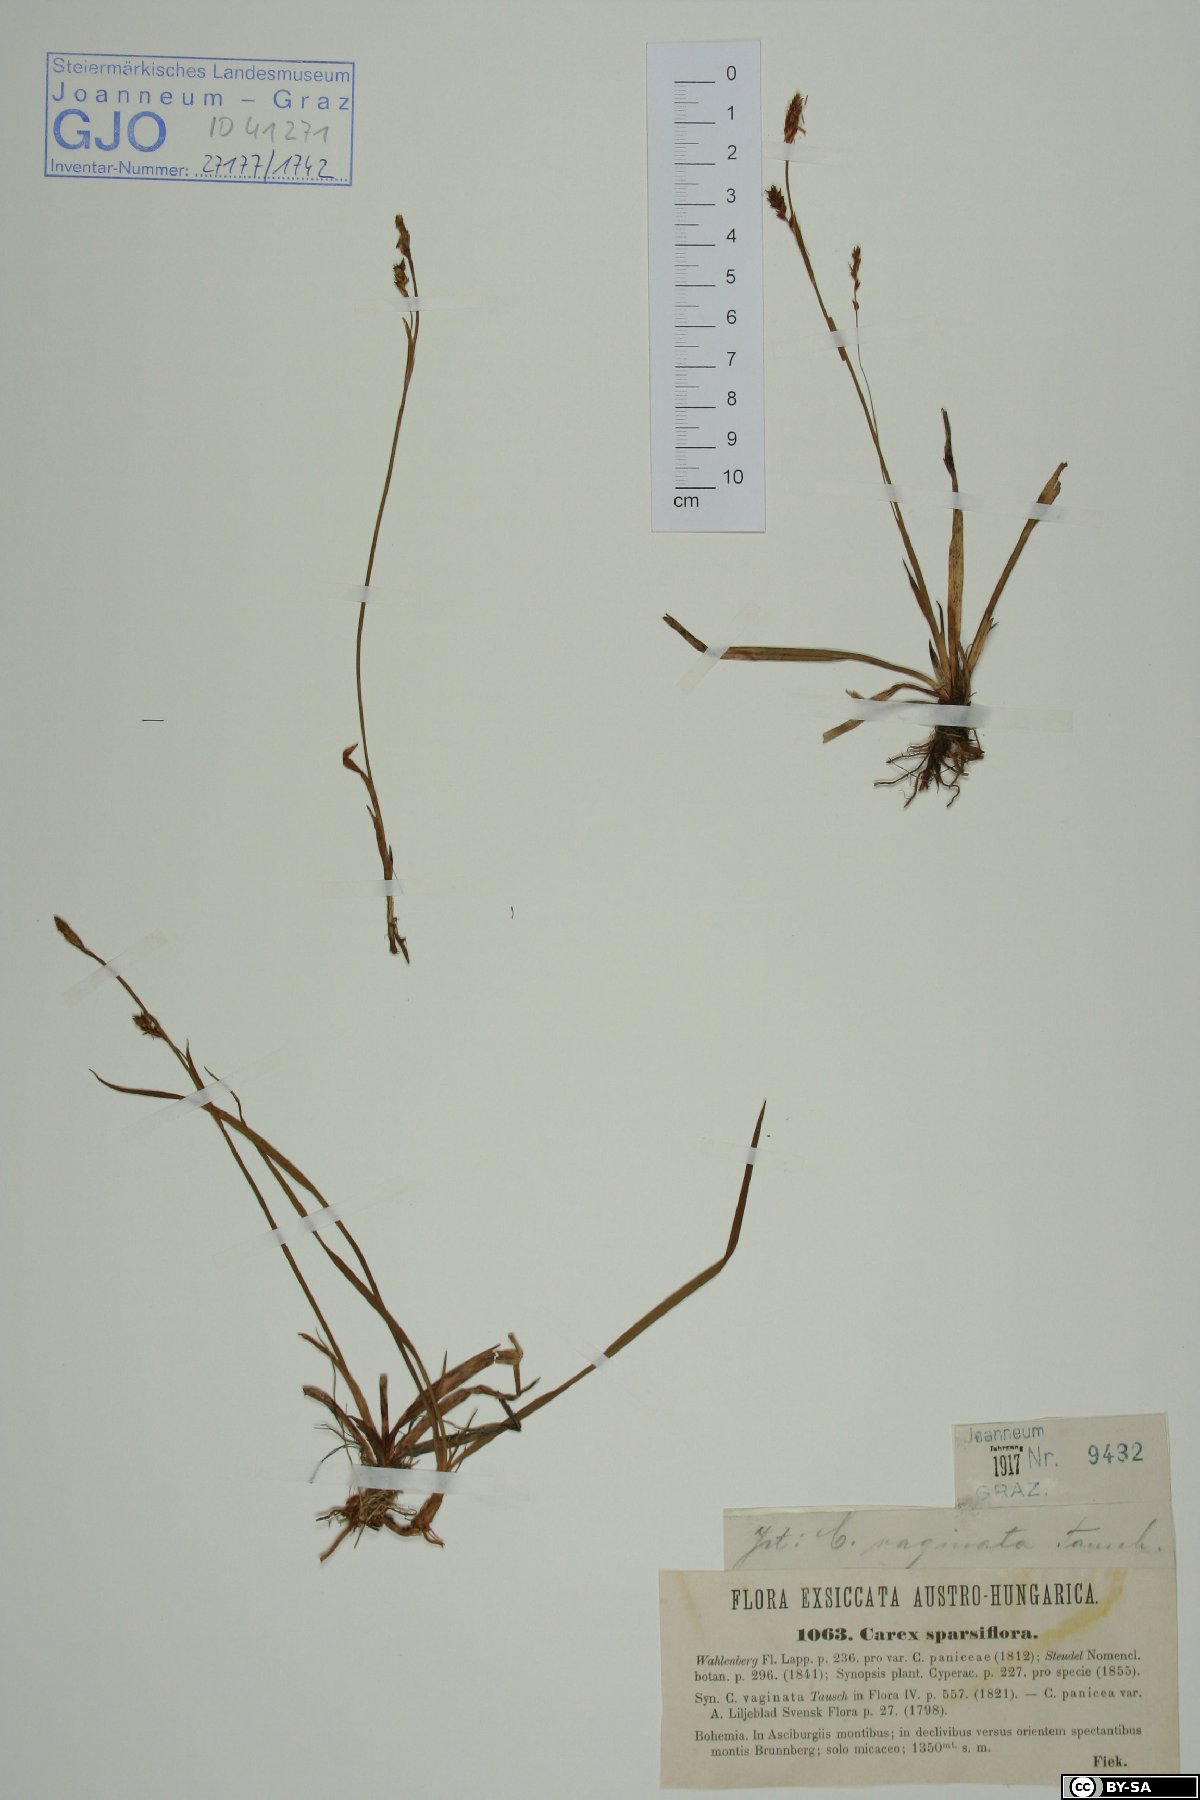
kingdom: Plantae
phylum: Tracheophyta
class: Liliopsida
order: Poales
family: Cyperaceae
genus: Carex
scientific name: Carex vaginata
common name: Sheathed sedge
